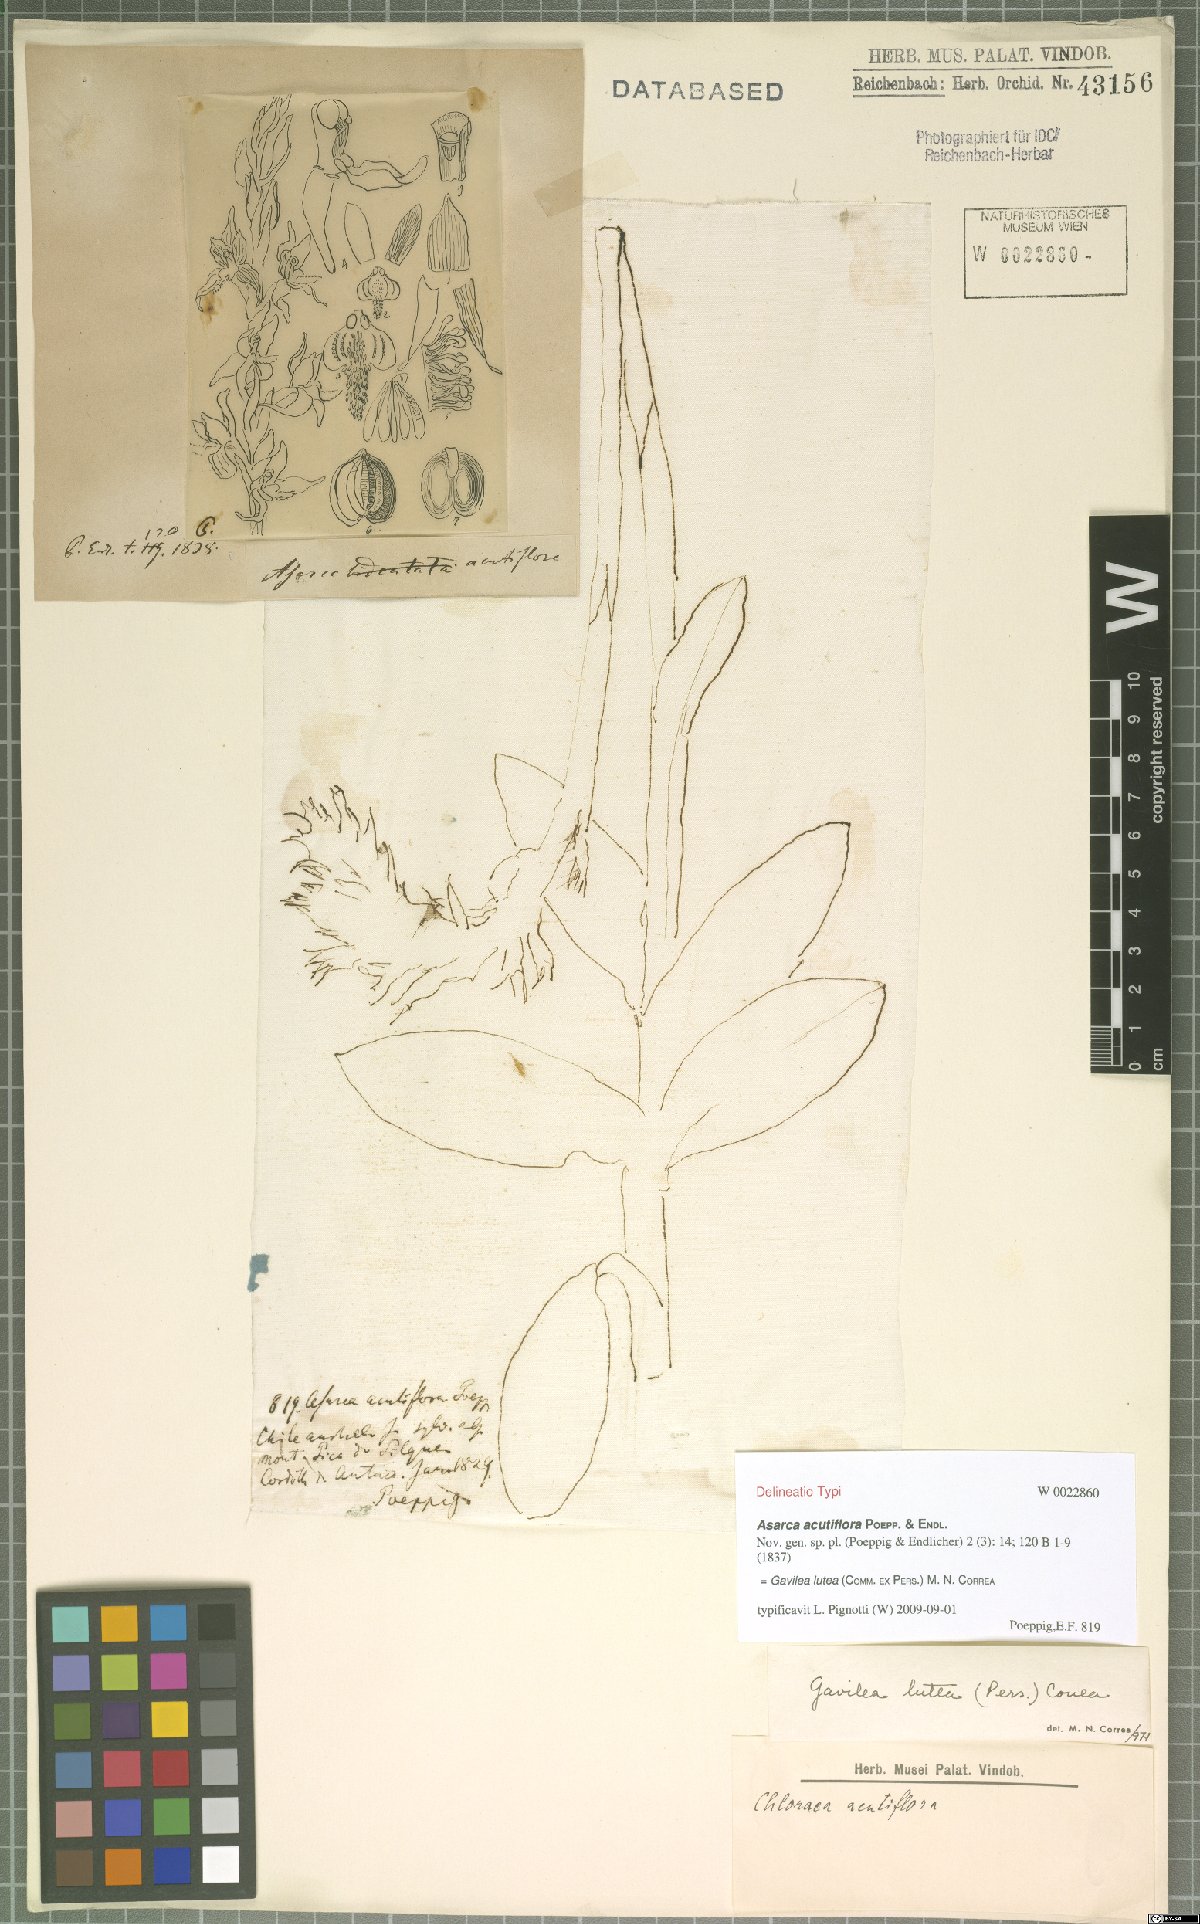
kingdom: Plantae
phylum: Tracheophyta
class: Liliopsida
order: Asparagales
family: Orchidaceae
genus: Gavilea
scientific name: Gavilea lutea
